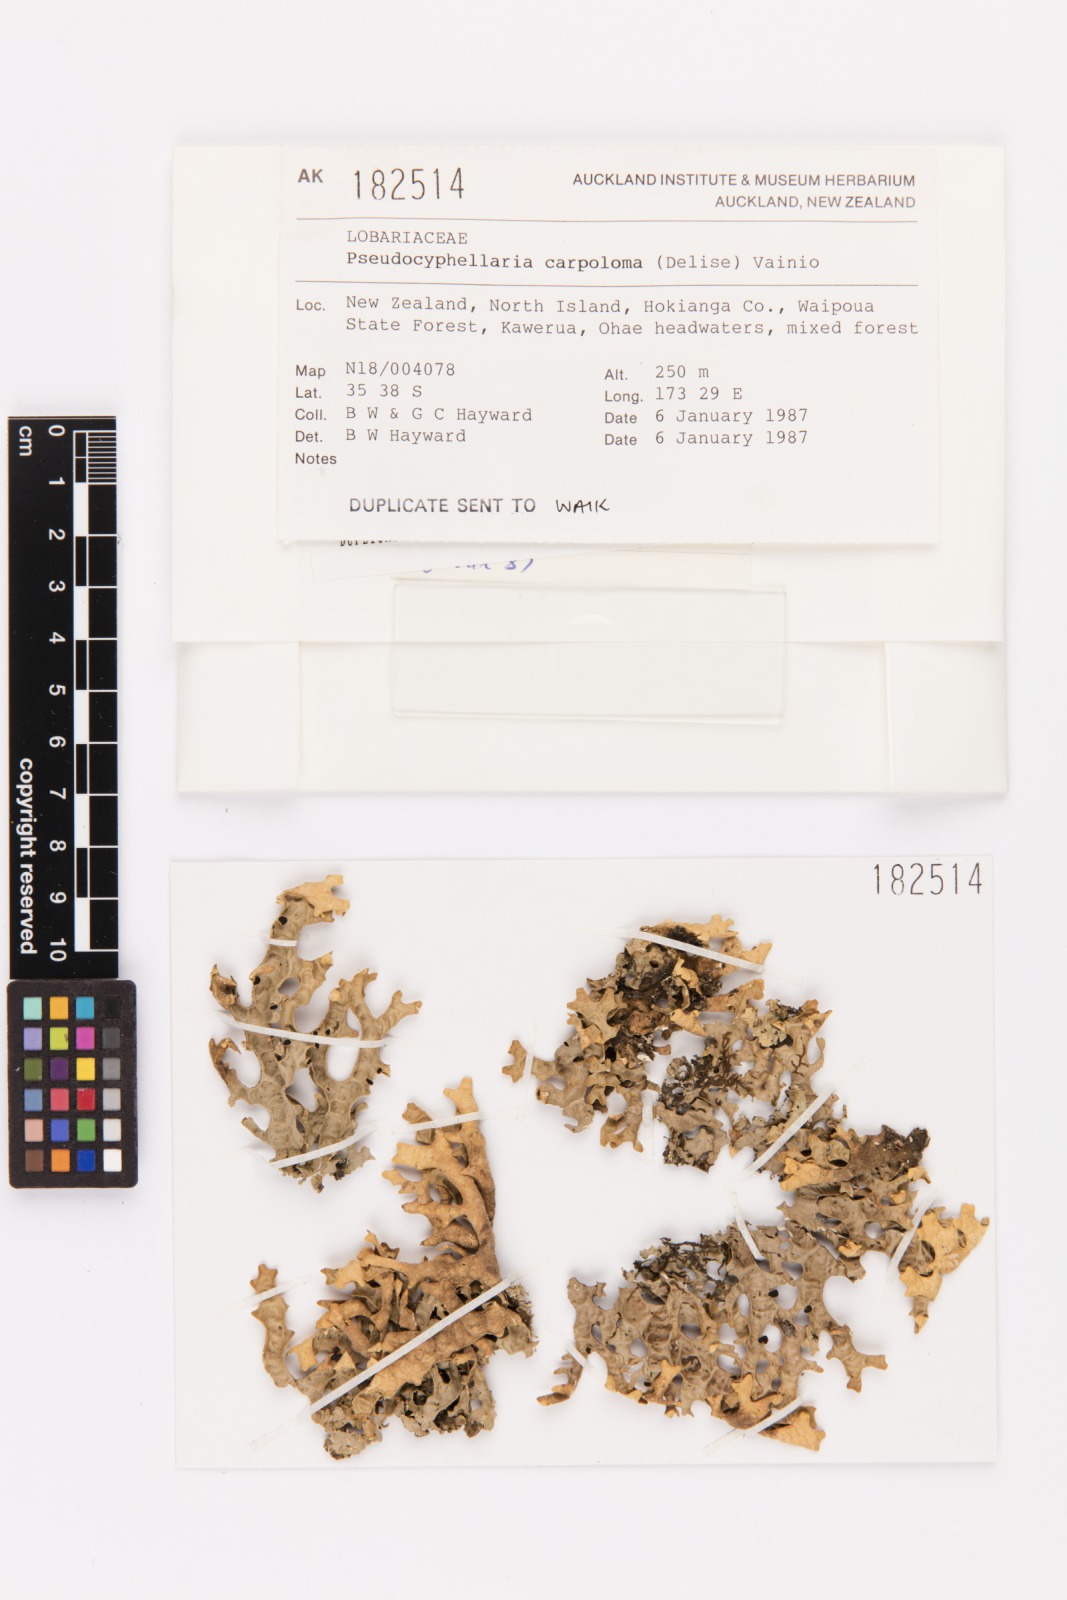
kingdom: Fungi
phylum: Ascomycota
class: Lecanoromycetes
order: Peltigerales
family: Lobariaceae
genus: Pseudocyphellaria
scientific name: Pseudocyphellaria carpoloma
